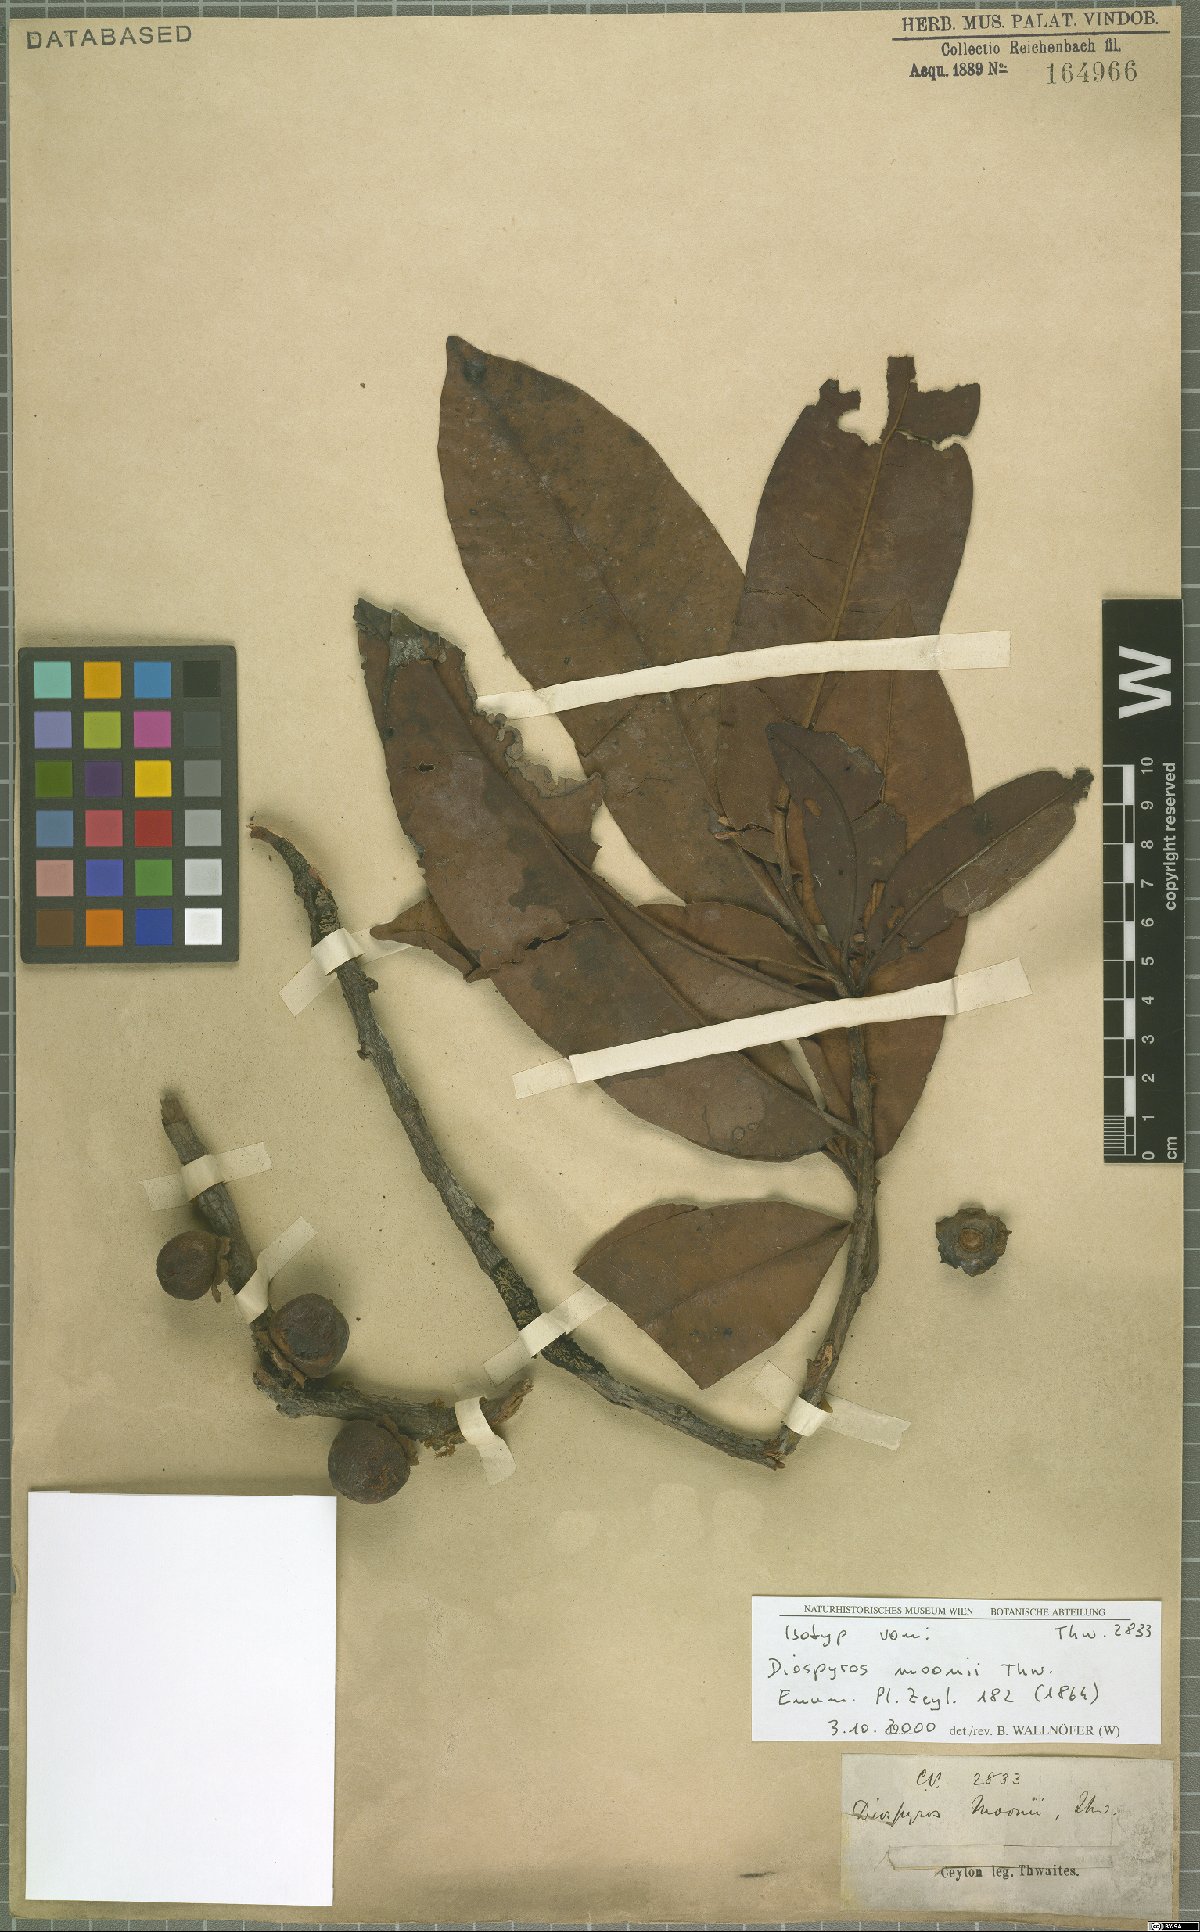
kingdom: Plantae
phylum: Tracheophyta
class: Magnoliopsida
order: Ericales
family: Ebenaceae
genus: Diospyros
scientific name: Diospyros moonii
